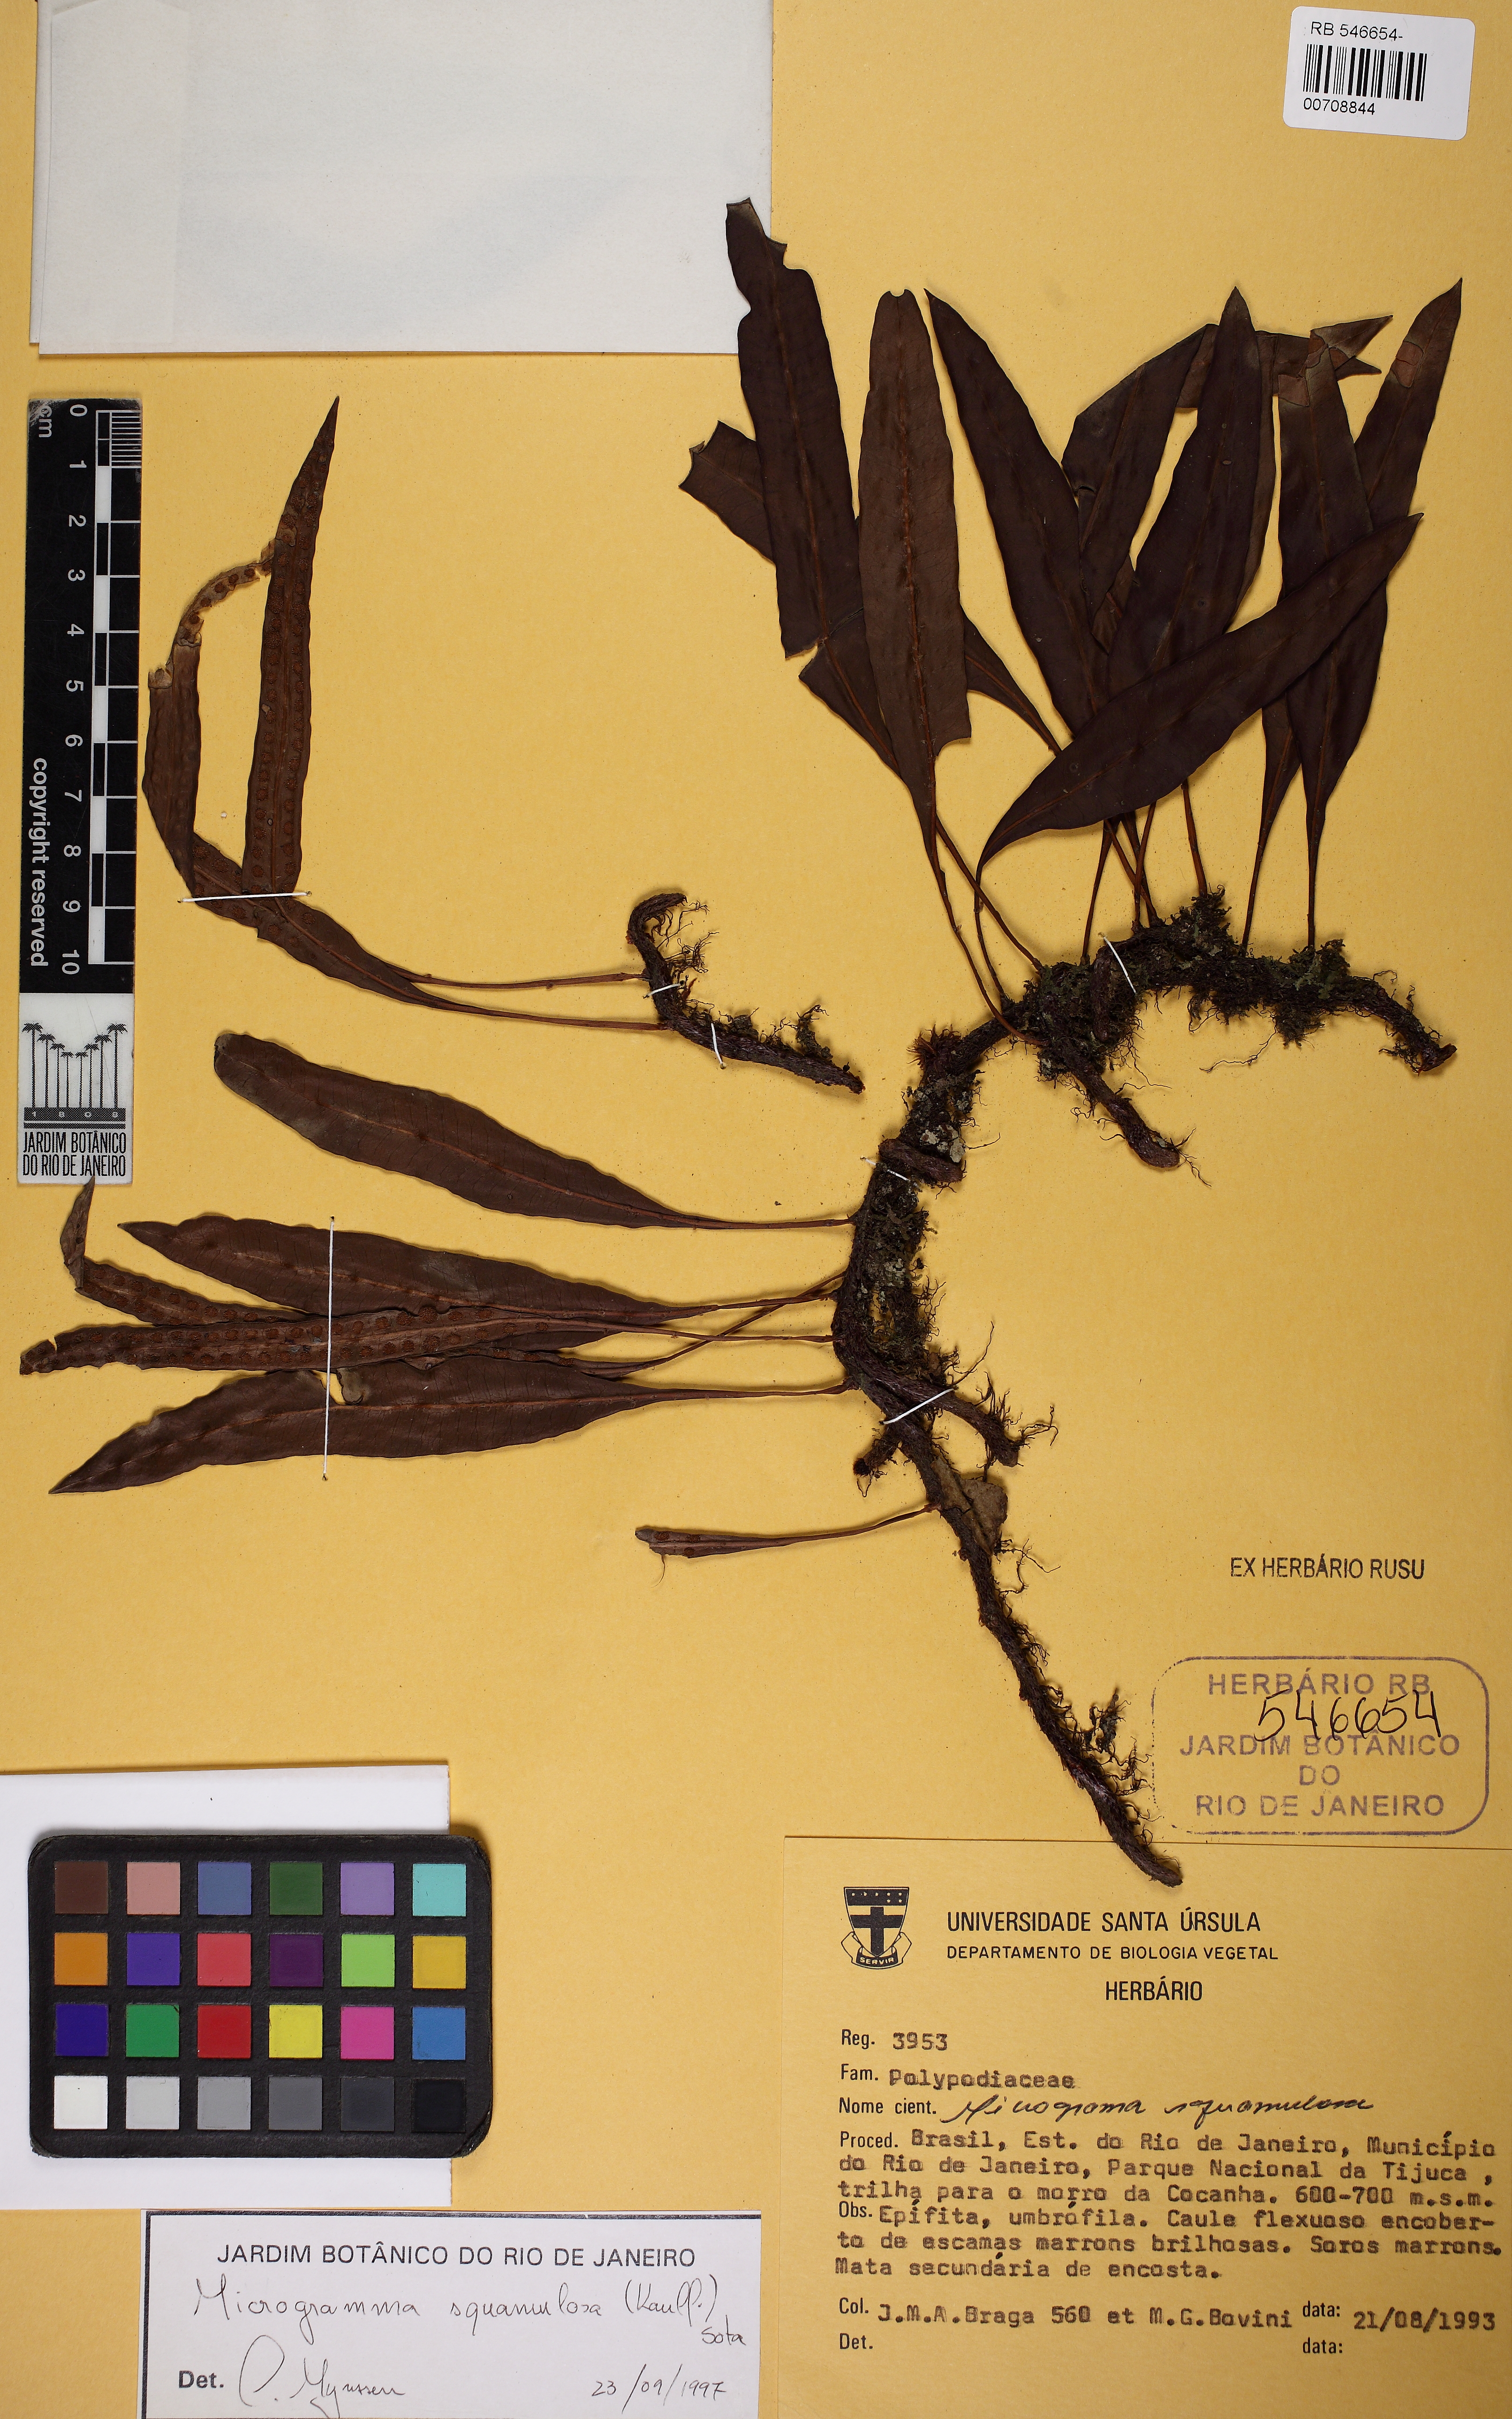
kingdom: Plantae
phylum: Tracheophyta
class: Polypodiopsida
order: Polypodiales
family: Polypodiaceae
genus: Microgramma
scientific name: Microgramma squamulosa
